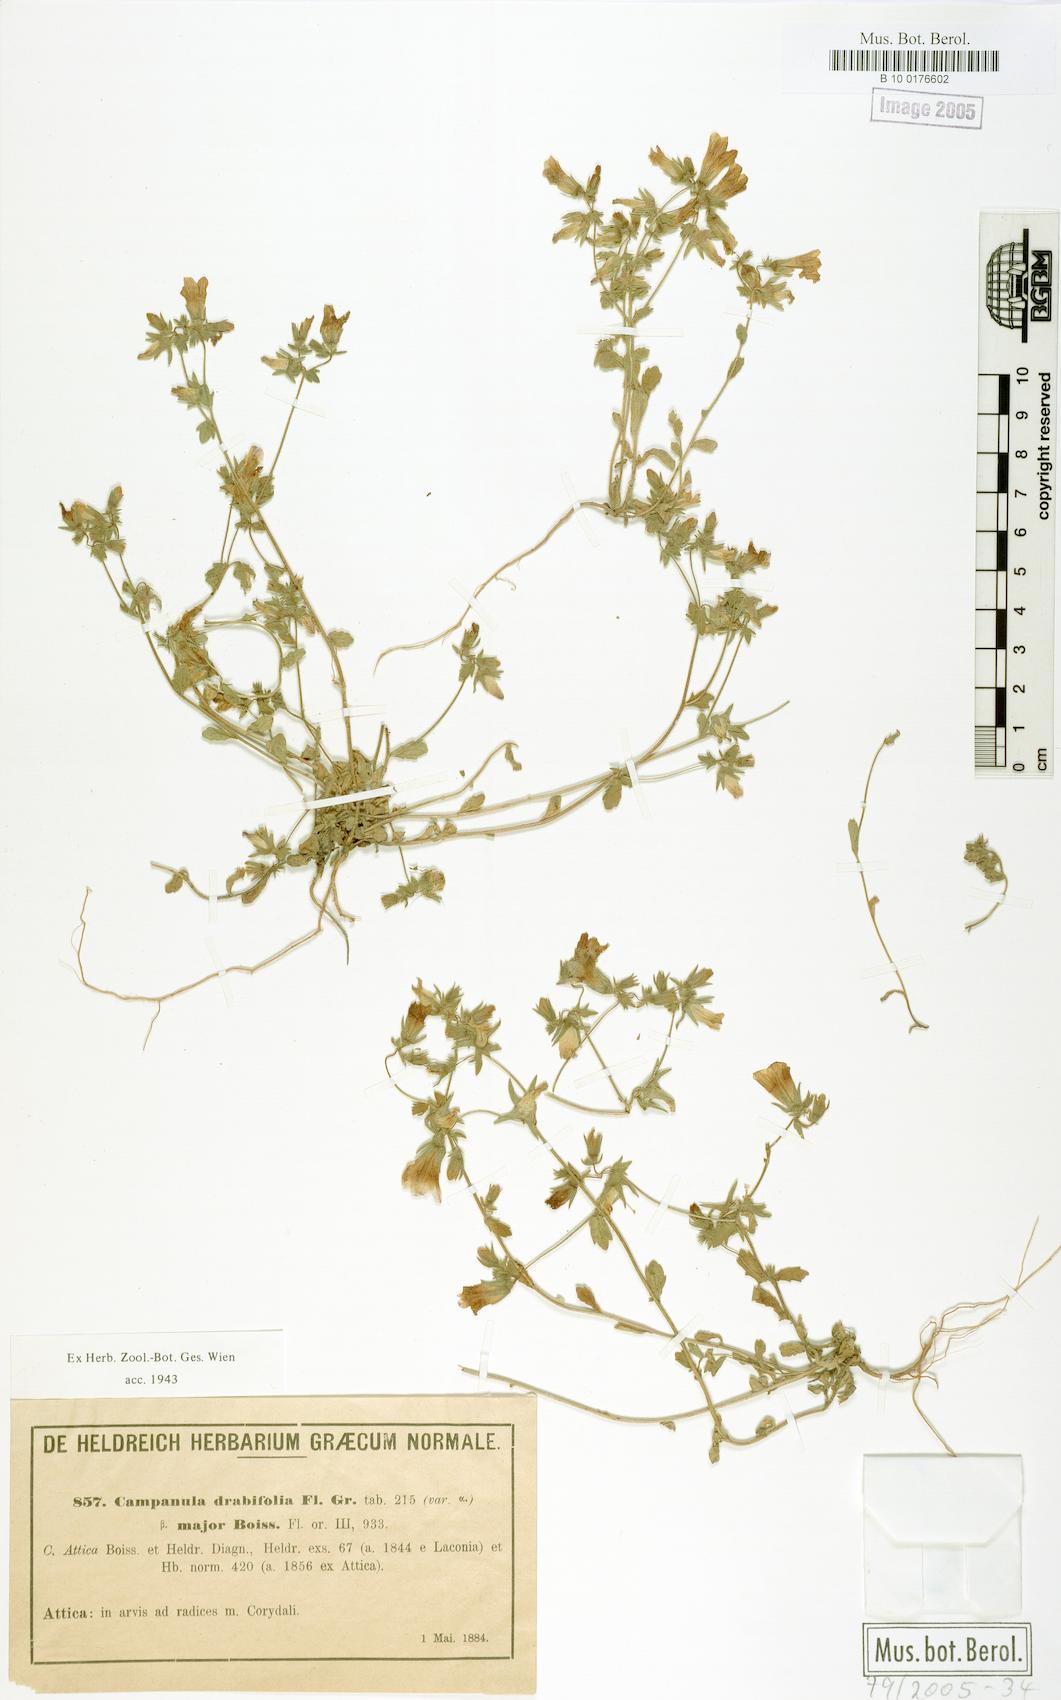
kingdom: Plantae
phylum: Tracheophyta
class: Magnoliopsida
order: Asterales
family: Campanulaceae
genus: Campanula
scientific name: Campanula drabifolia
